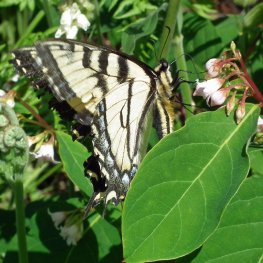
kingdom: Animalia
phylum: Arthropoda
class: Insecta
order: Lepidoptera
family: Papilionidae
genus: Pterourus
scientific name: Pterourus rutulus
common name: Western Tiger Swallowtail
